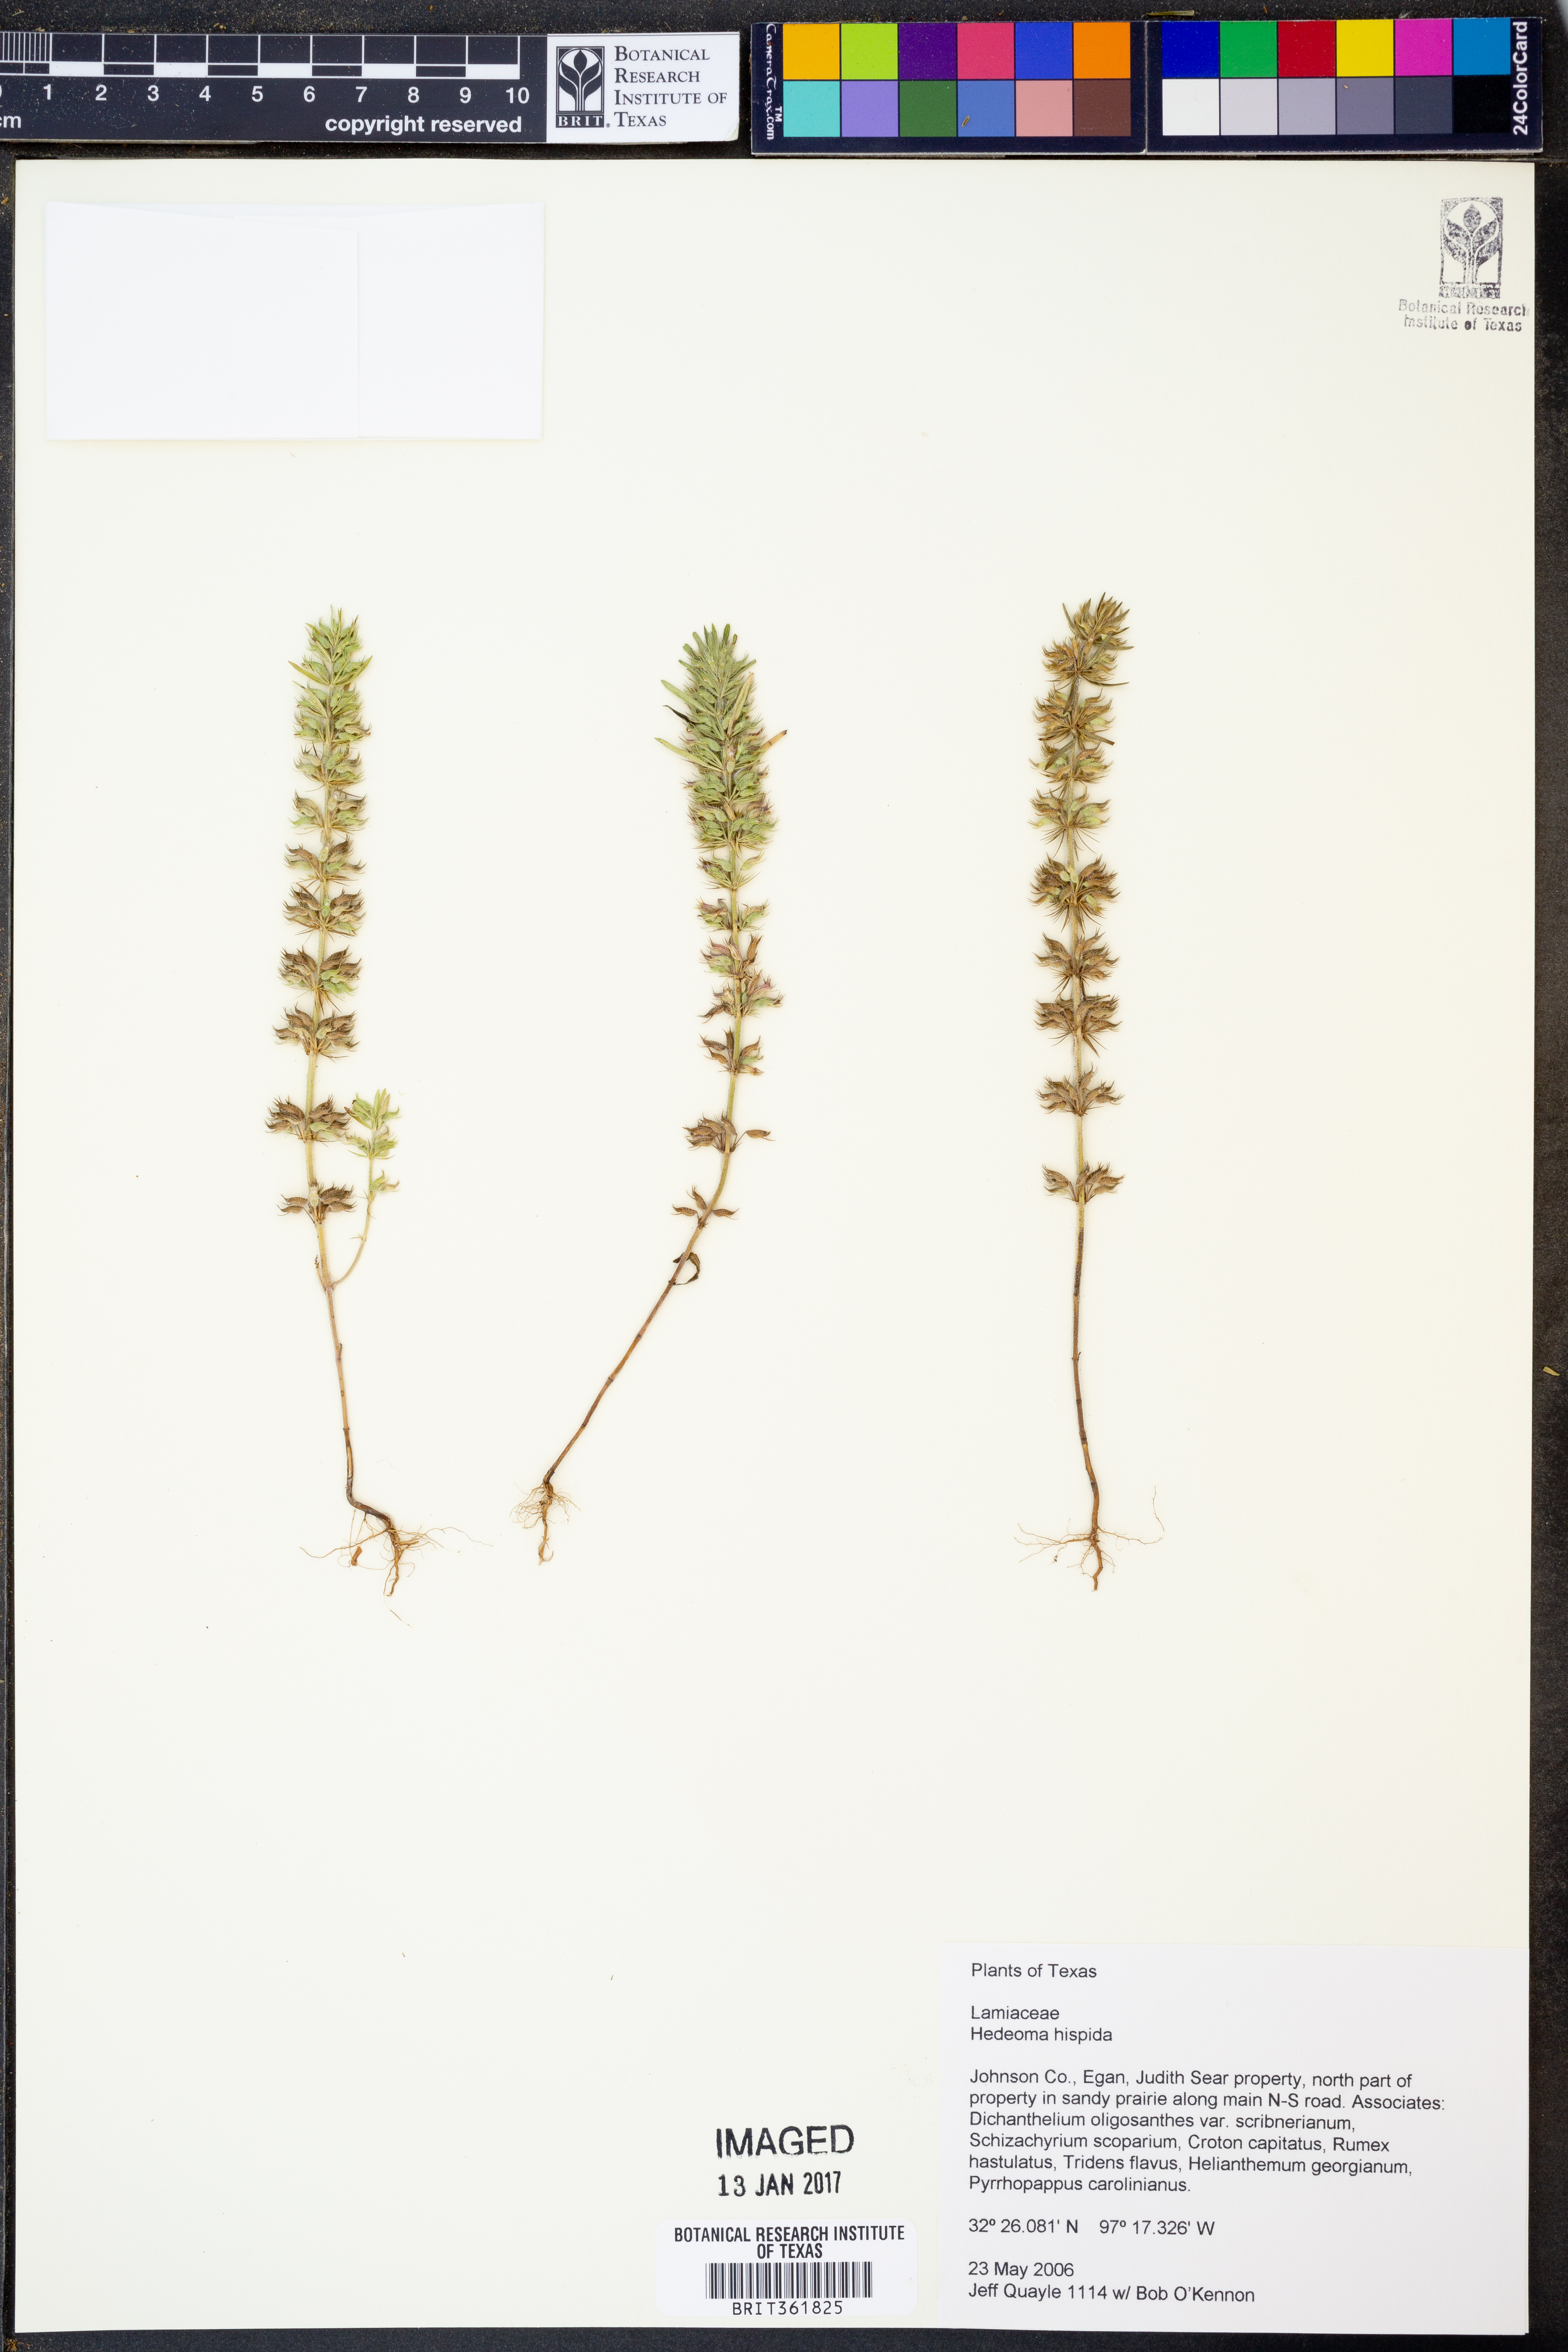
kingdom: Plantae
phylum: Tracheophyta
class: Magnoliopsida
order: Lamiales
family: Lamiaceae
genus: Hedeoma
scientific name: Hedeoma hispida
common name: Mock pennyroyal
